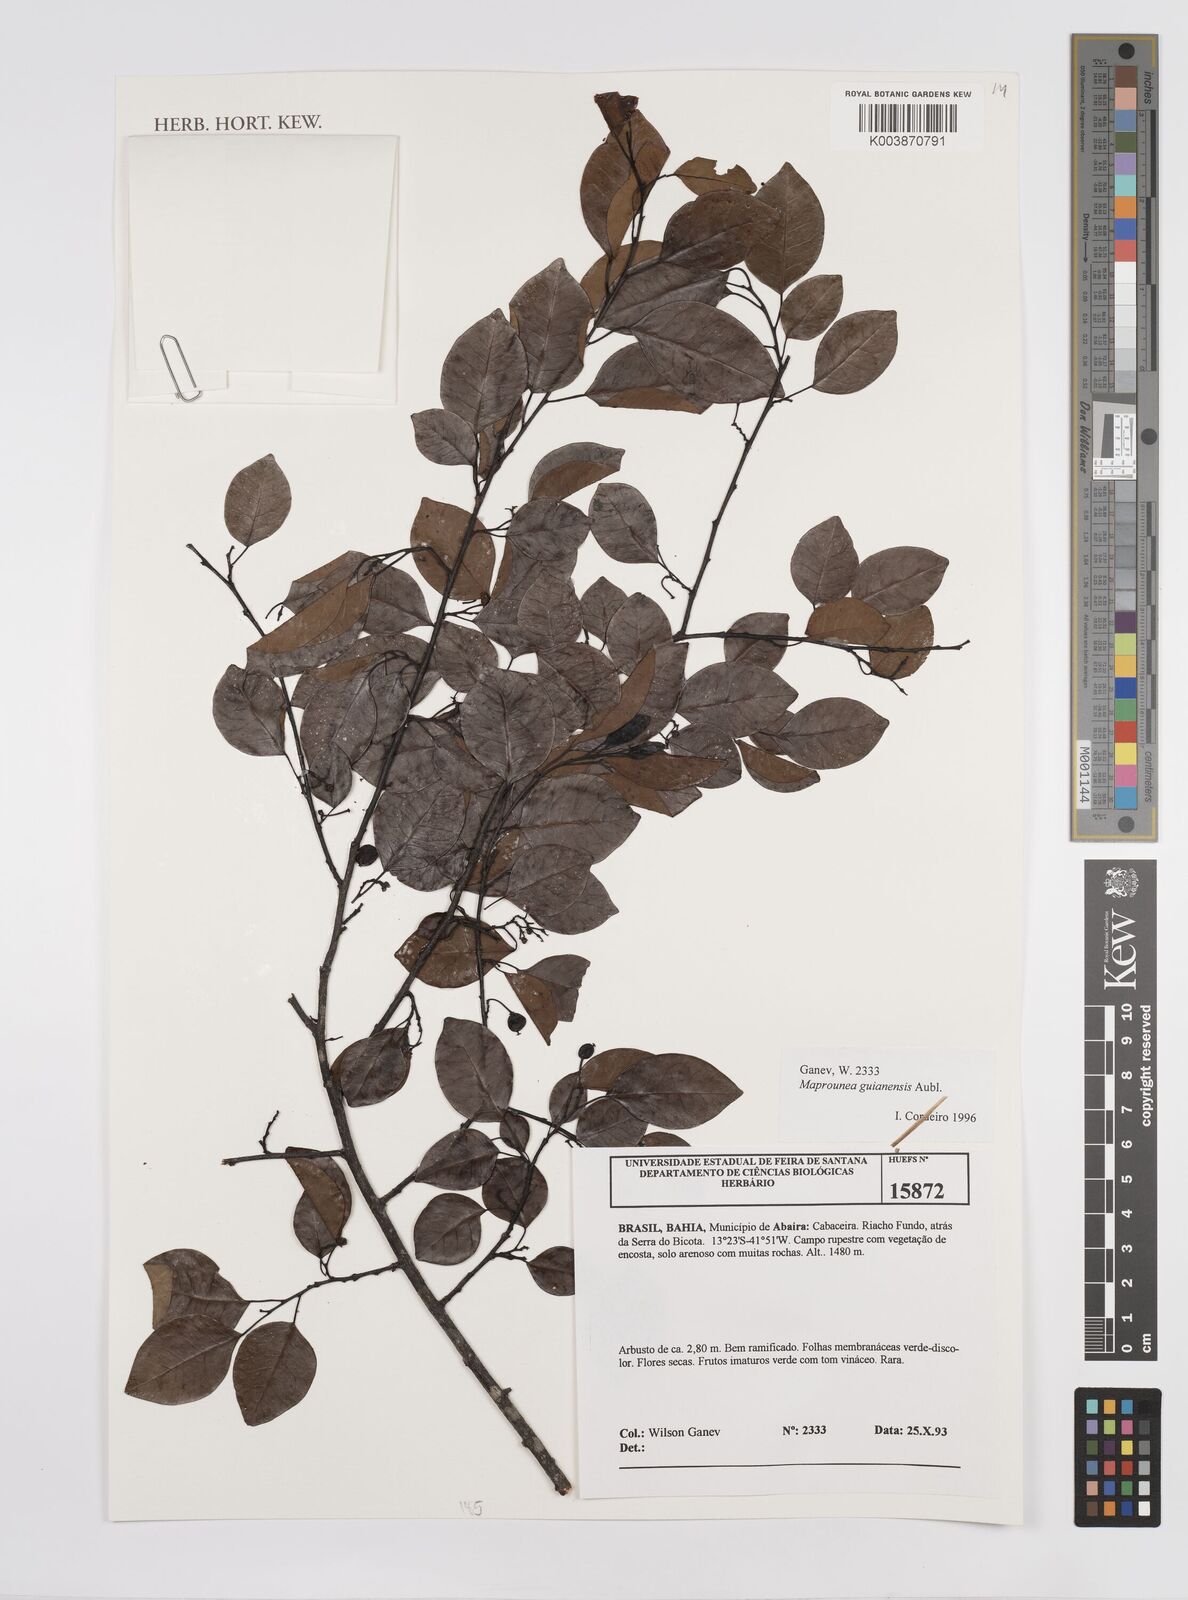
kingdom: Plantae
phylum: Tracheophyta
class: Magnoliopsida
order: Malpighiales
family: Euphorbiaceae
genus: Maprounea
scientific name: Maprounea guianensis
